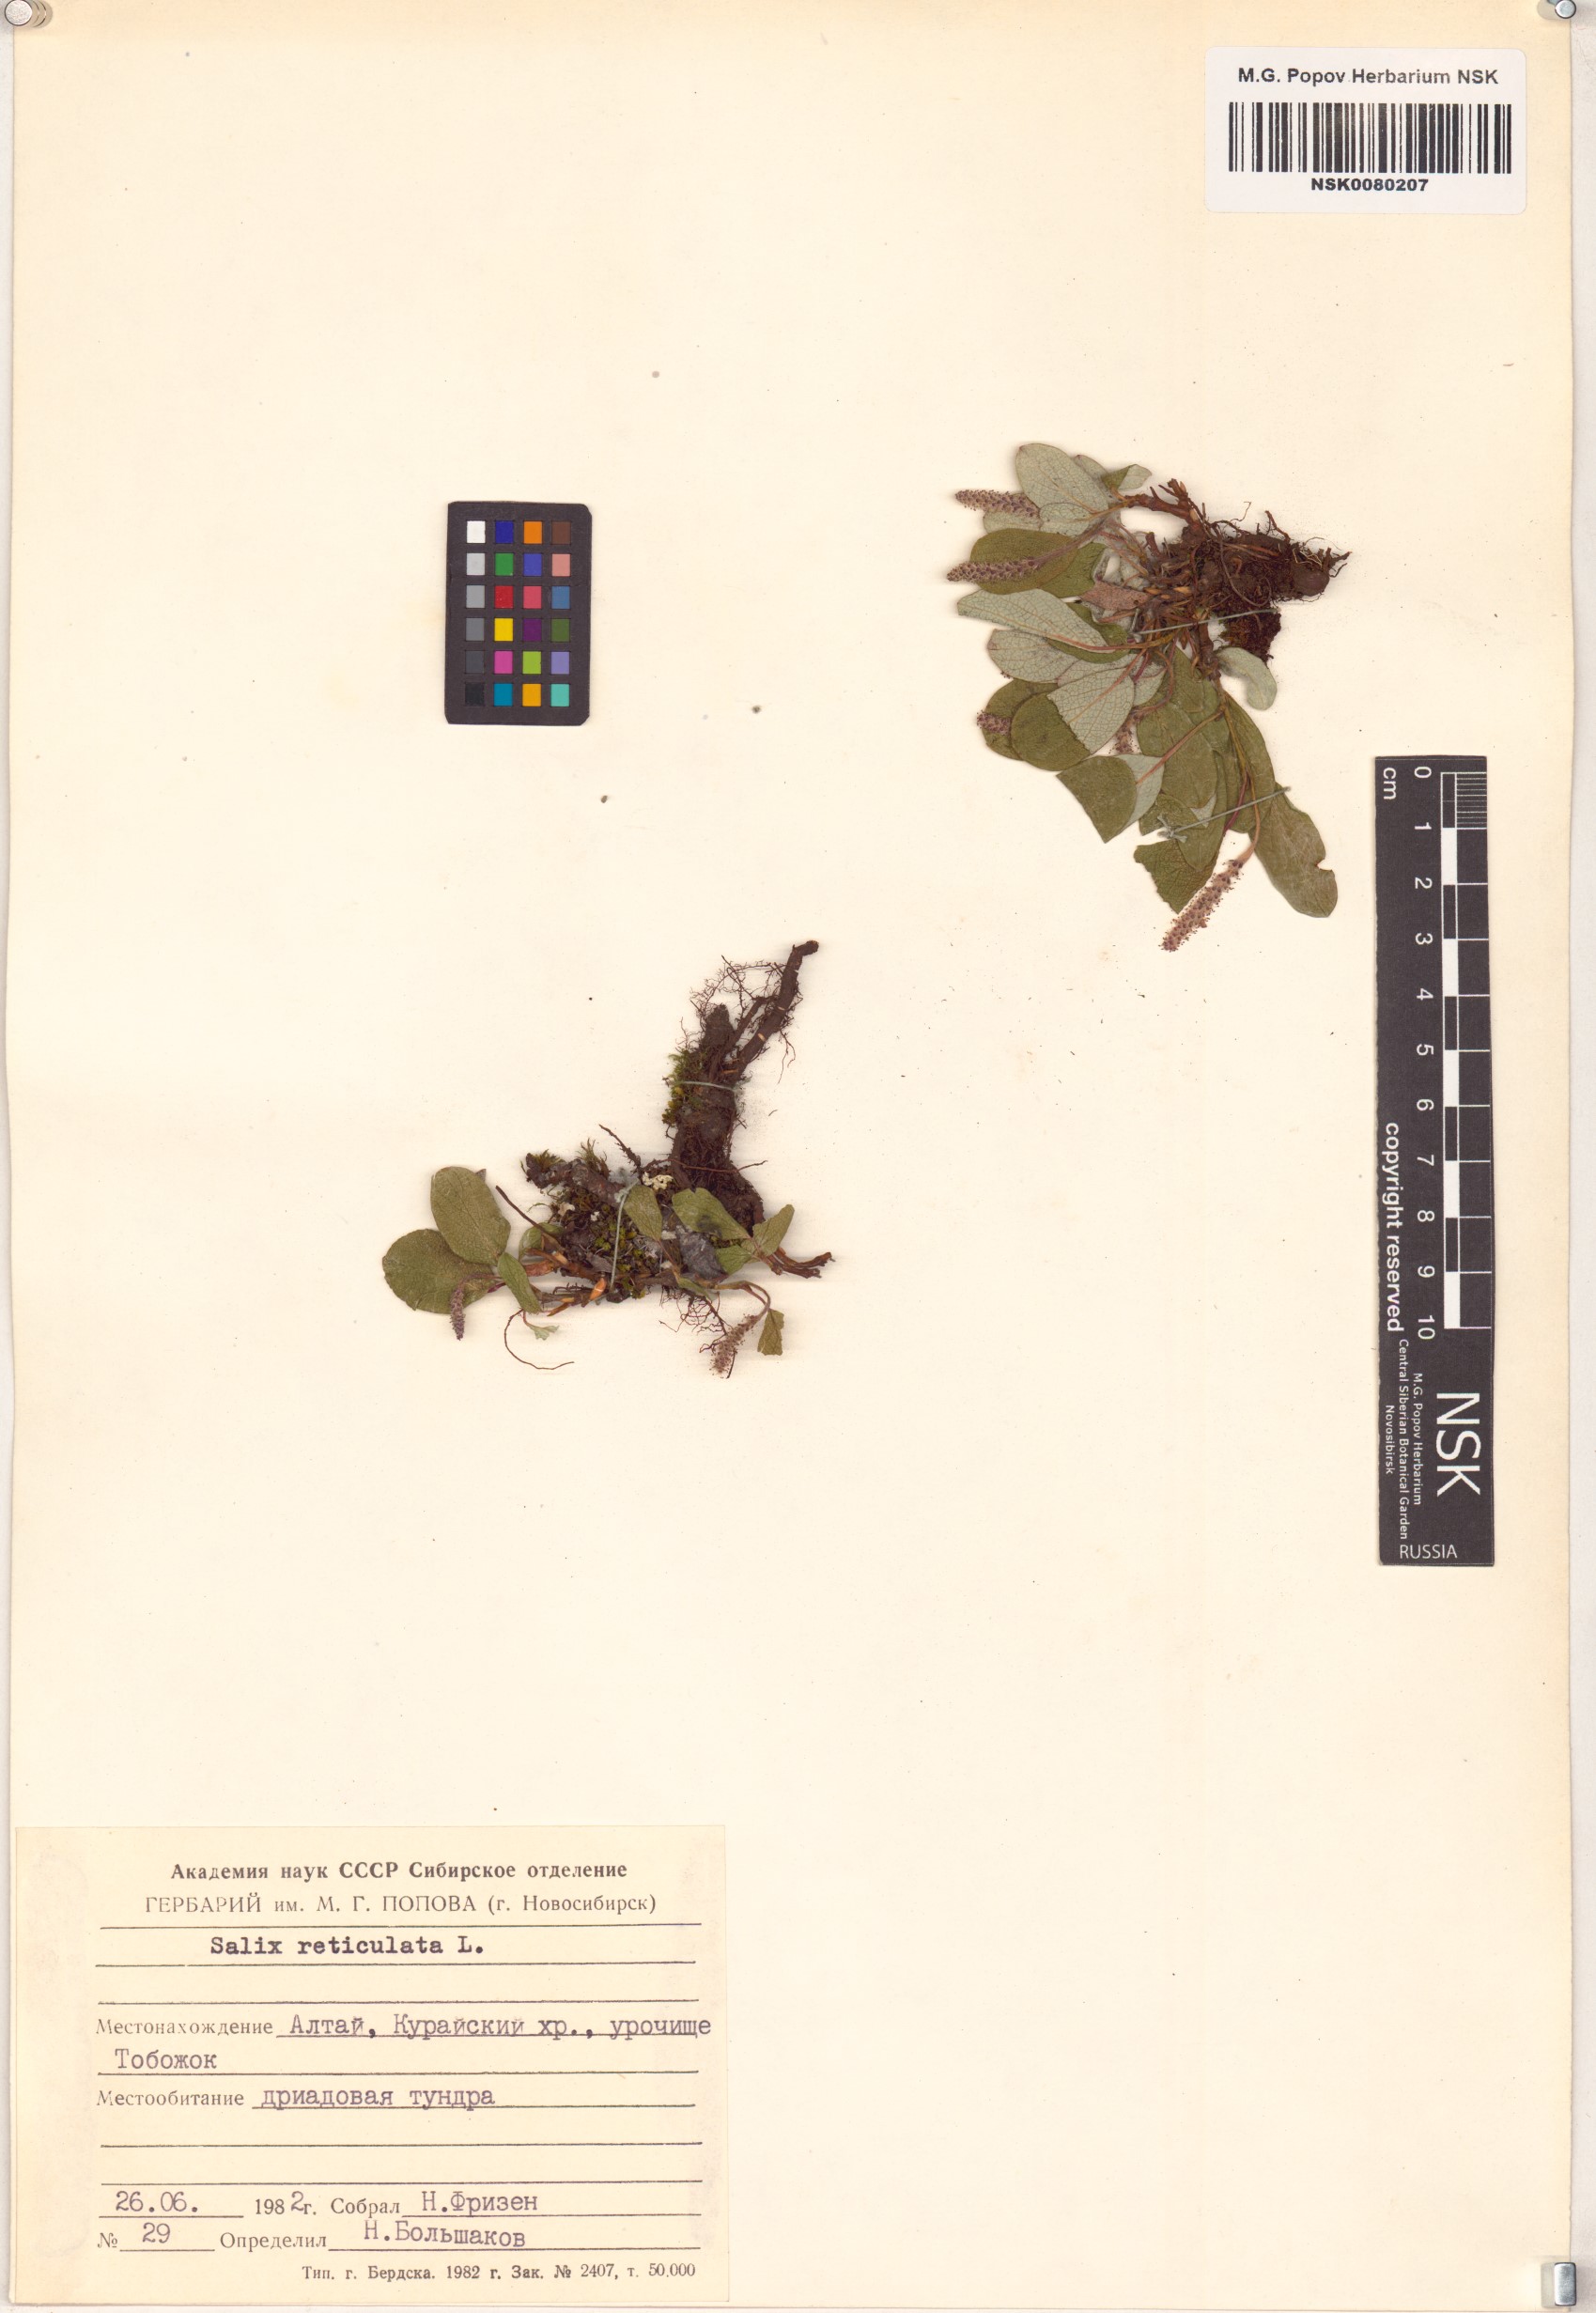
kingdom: Plantae
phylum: Tracheophyta
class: Magnoliopsida
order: Malpighiales
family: Salicaceae
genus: Salix
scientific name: Salix reticulata
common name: Net-leaved willow
